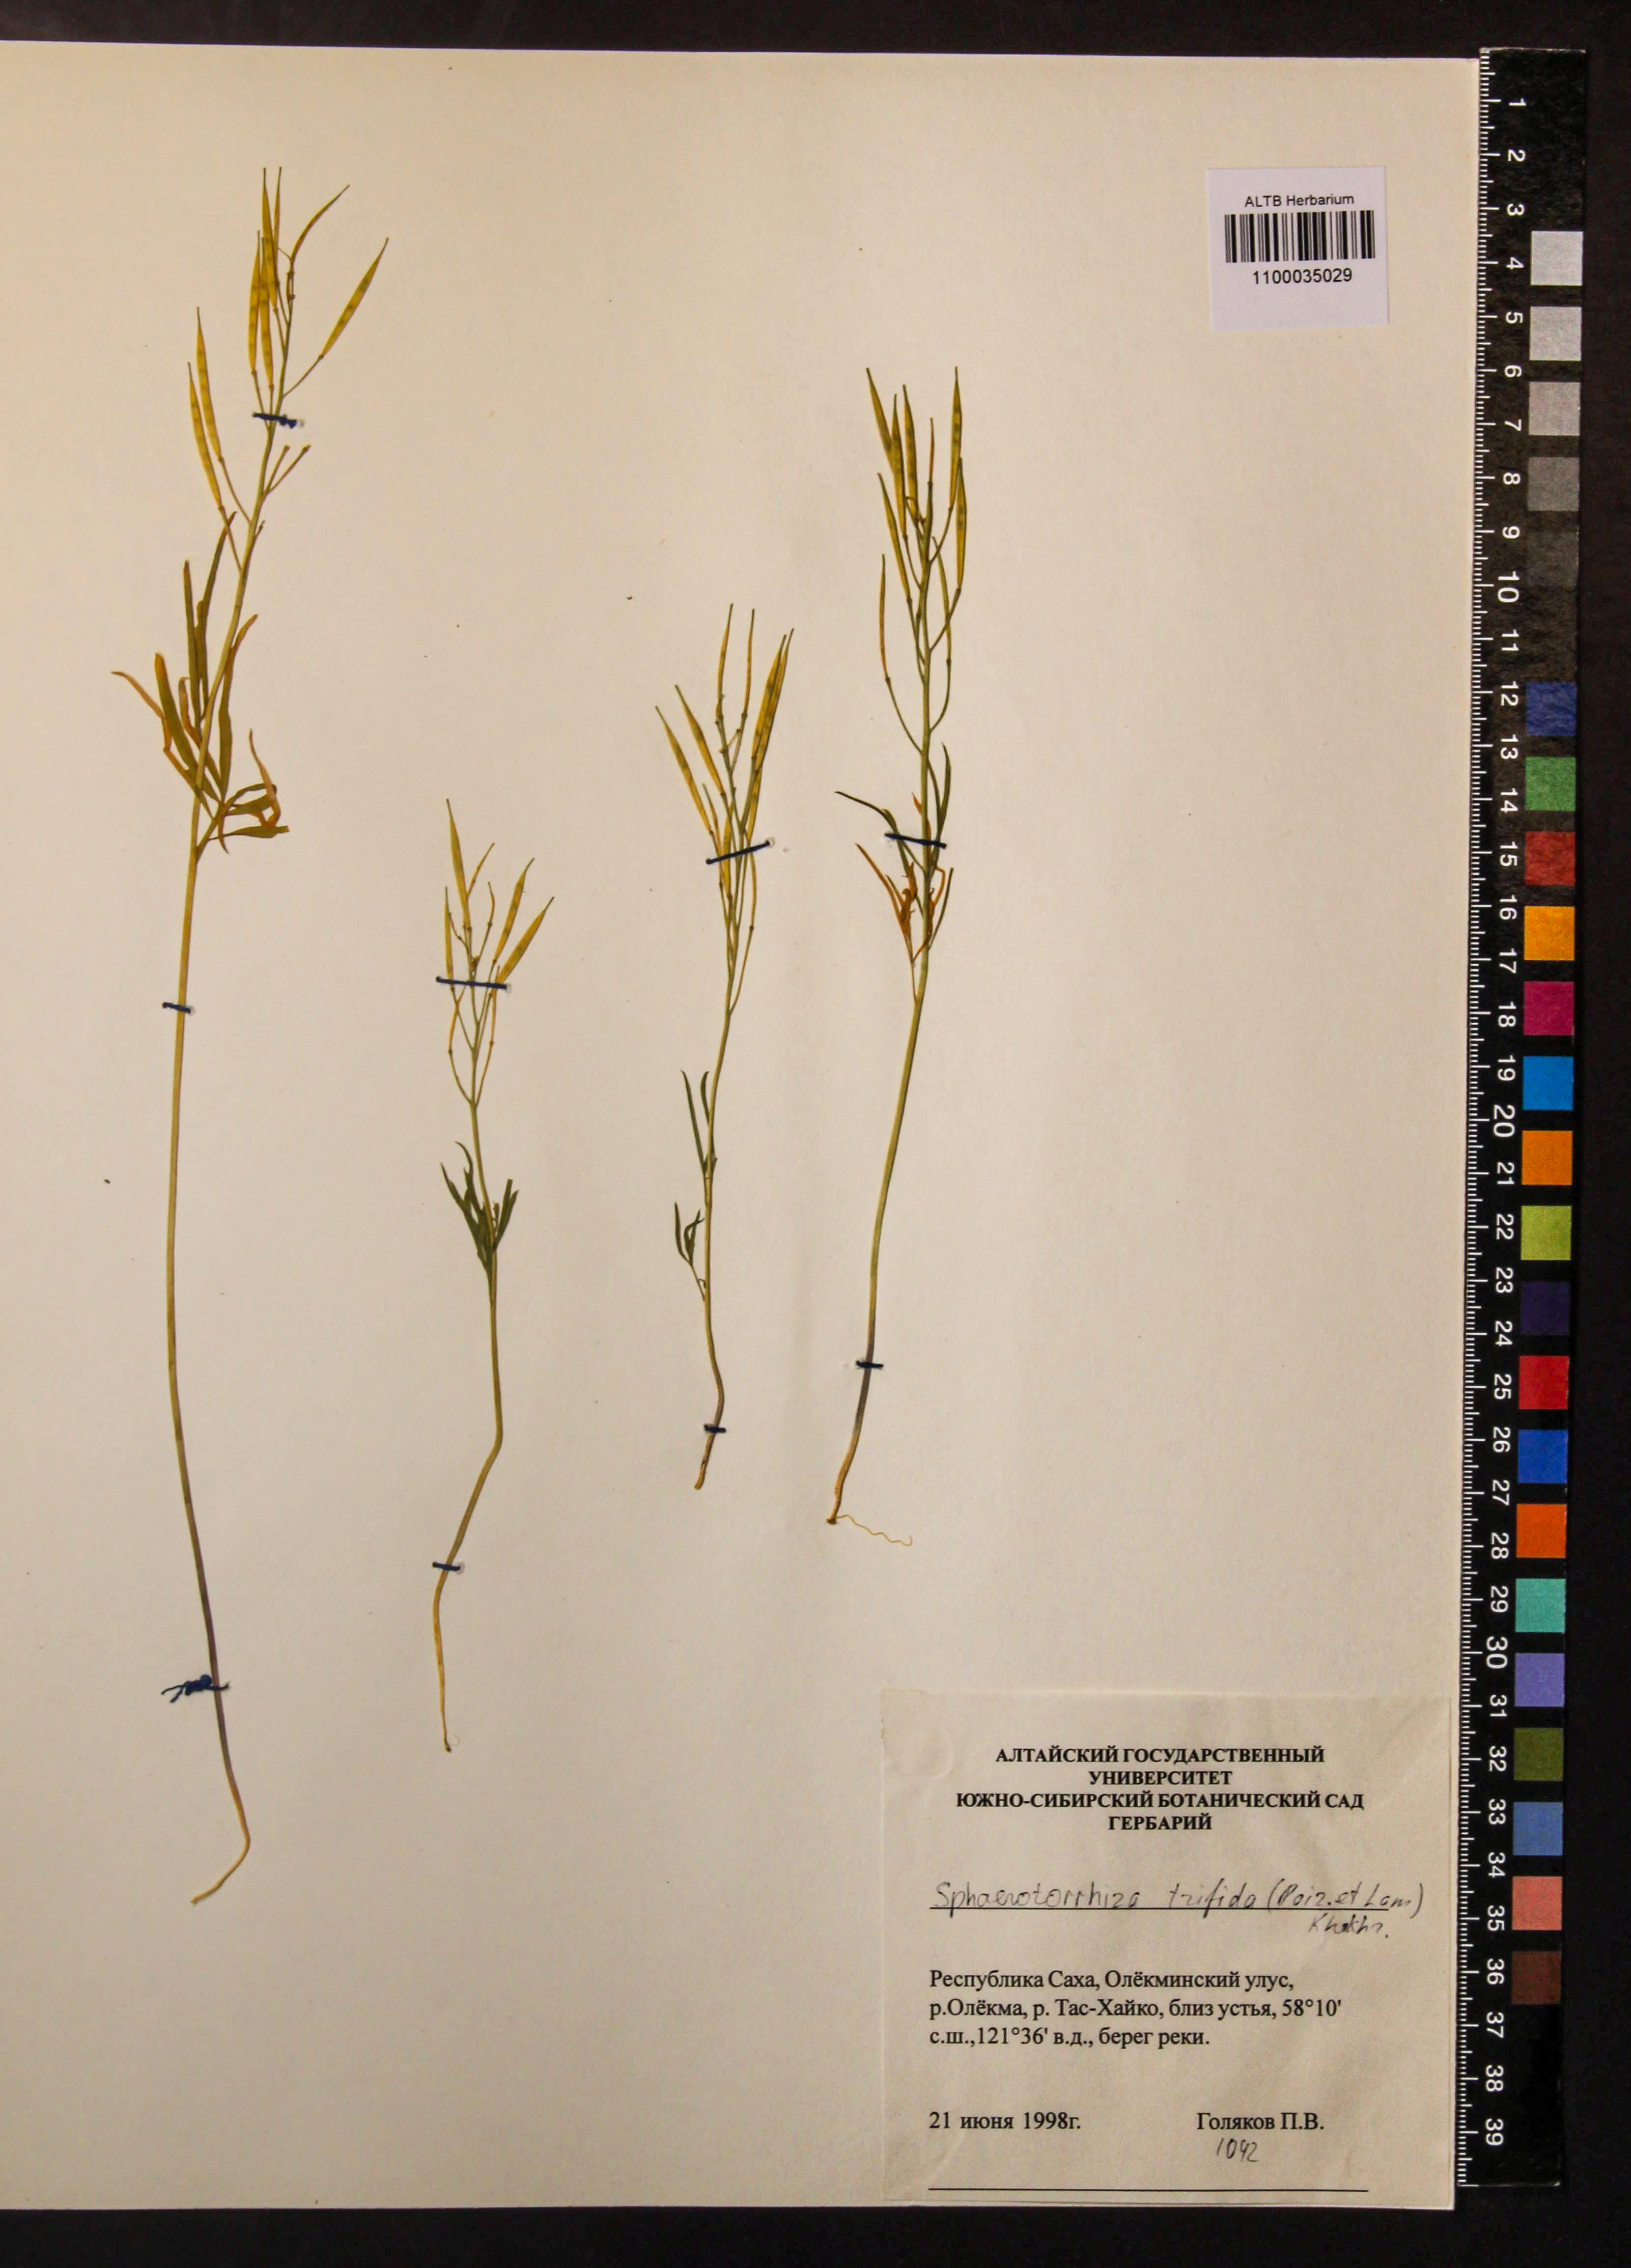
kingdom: Plantae
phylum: Tracheophyta
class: Magnoliopsida
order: Brassicales
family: Brassicaceae
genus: Cardamine
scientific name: Cardamine trifida
